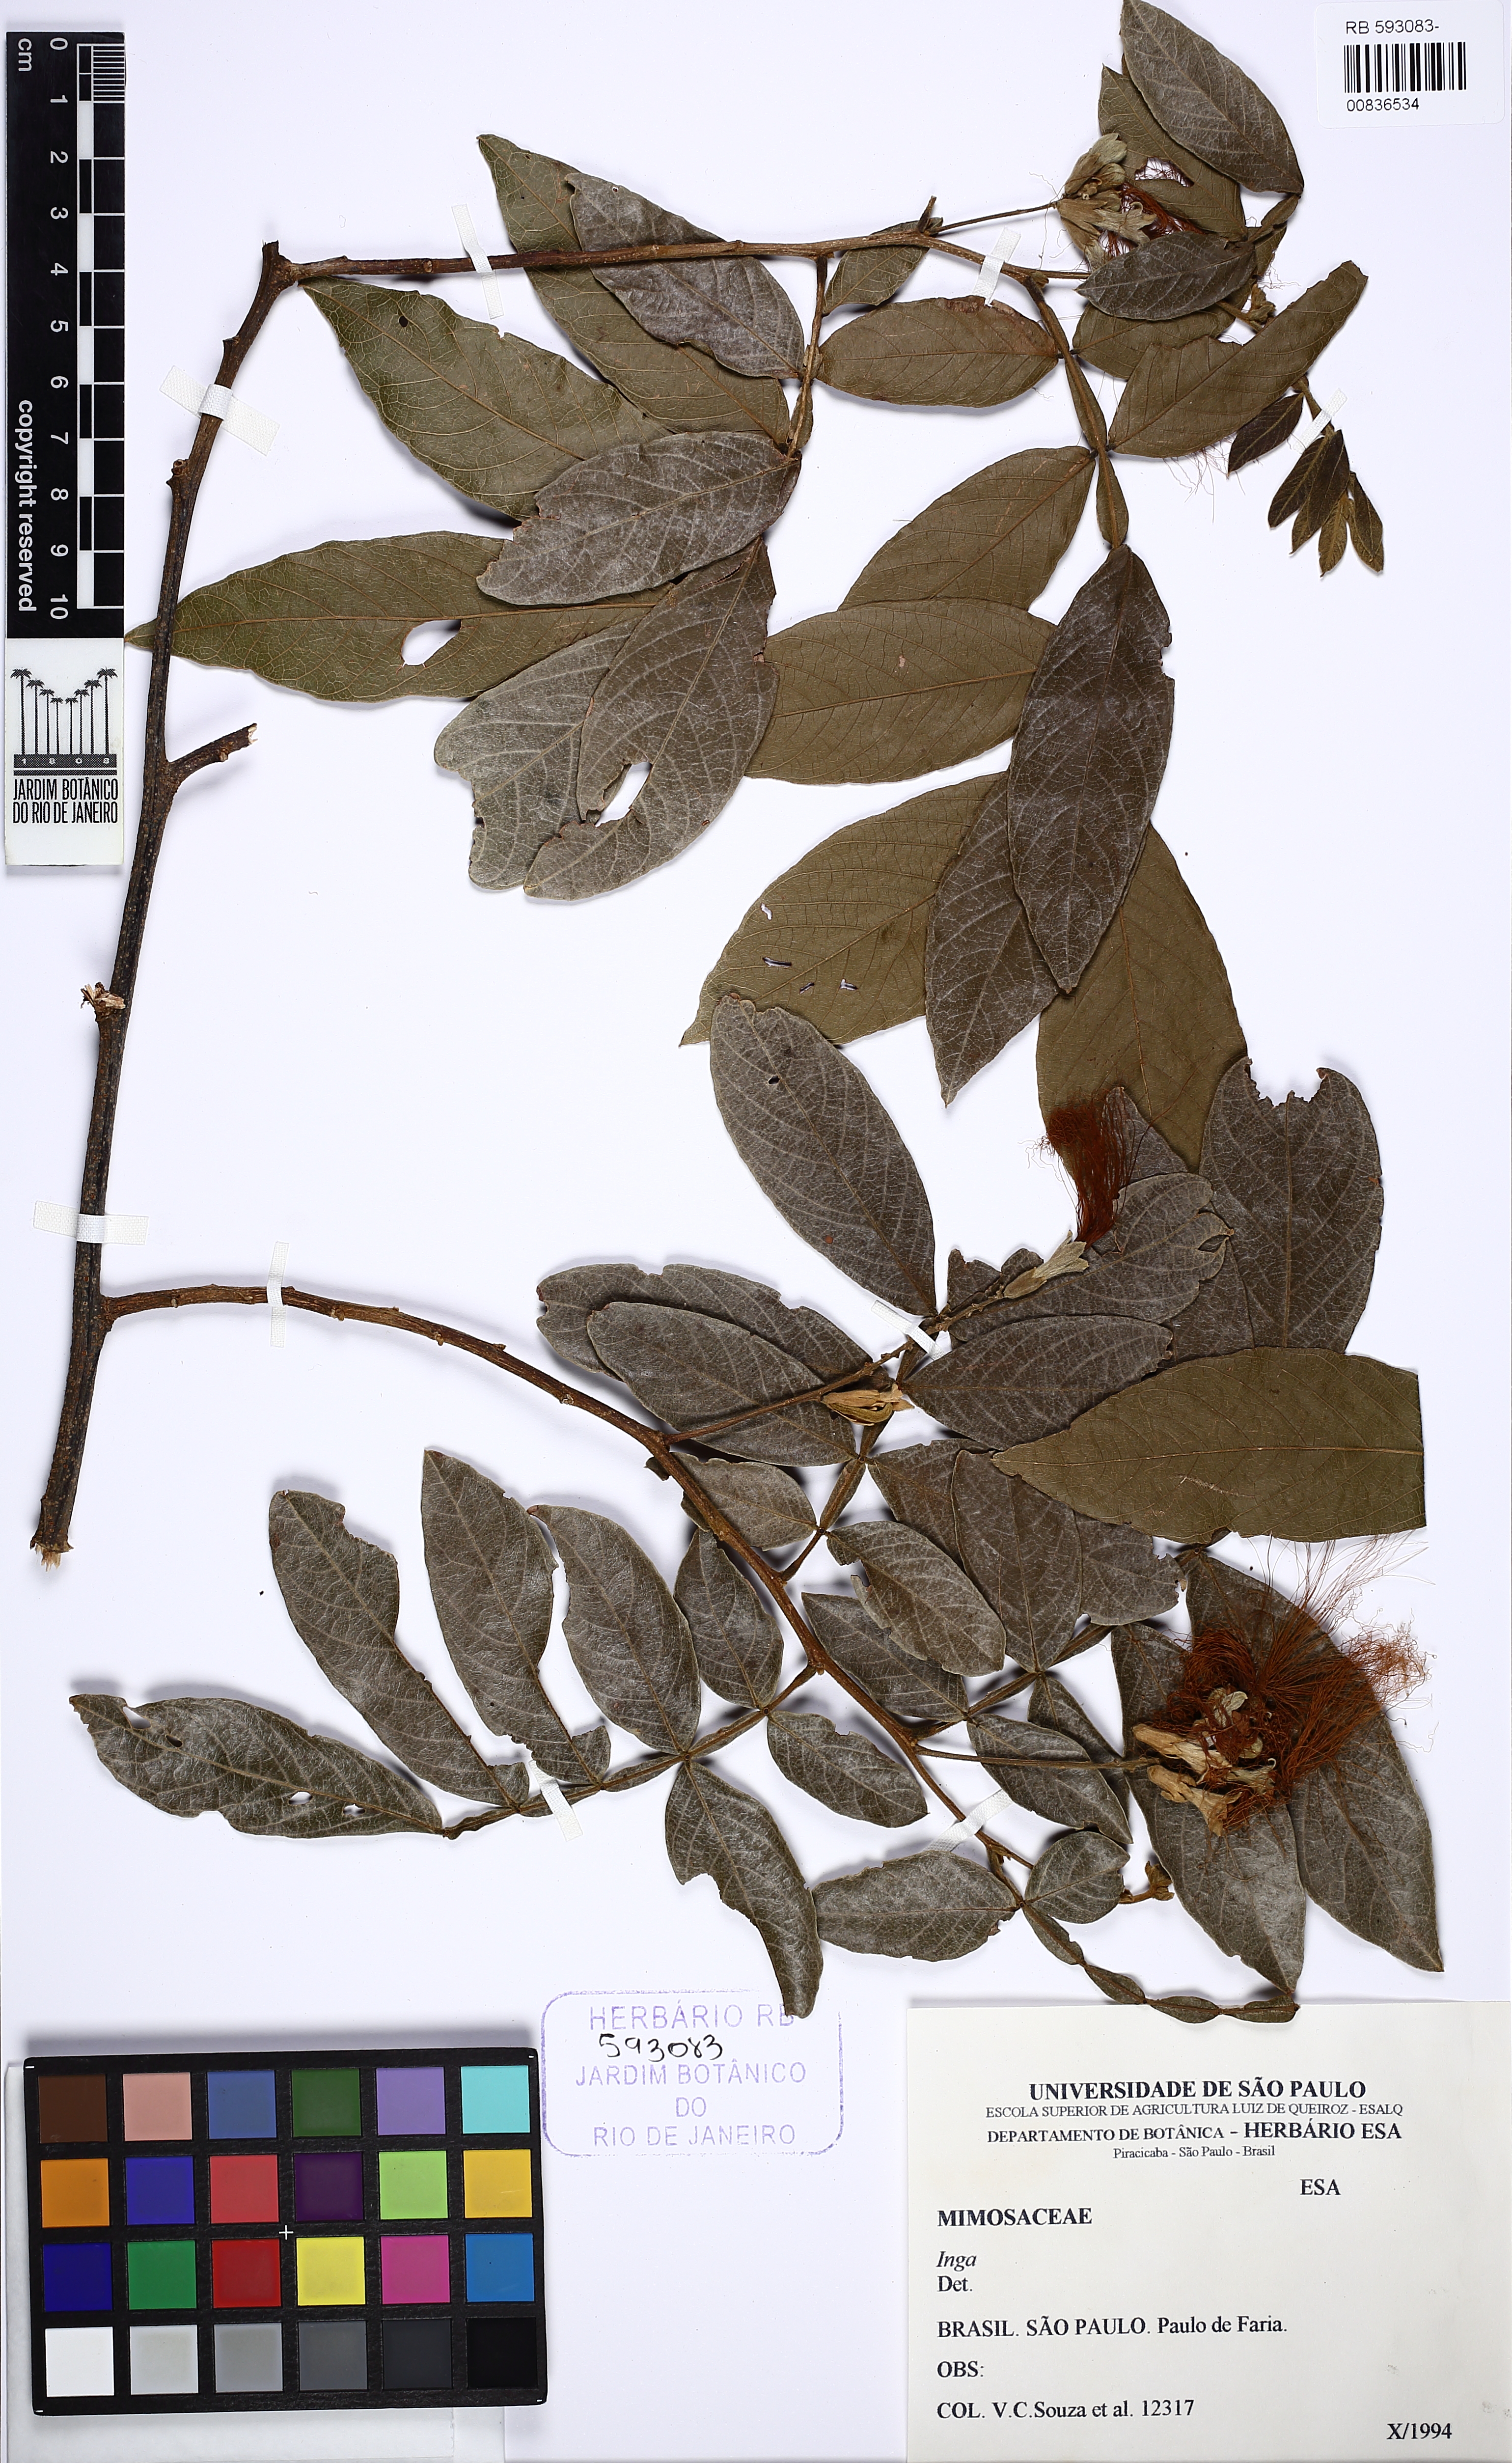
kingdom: Plantae
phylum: Tracheophyta
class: Magnoliopsida
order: Fabales
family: Fabaceae
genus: Inga
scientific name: Inga vera
